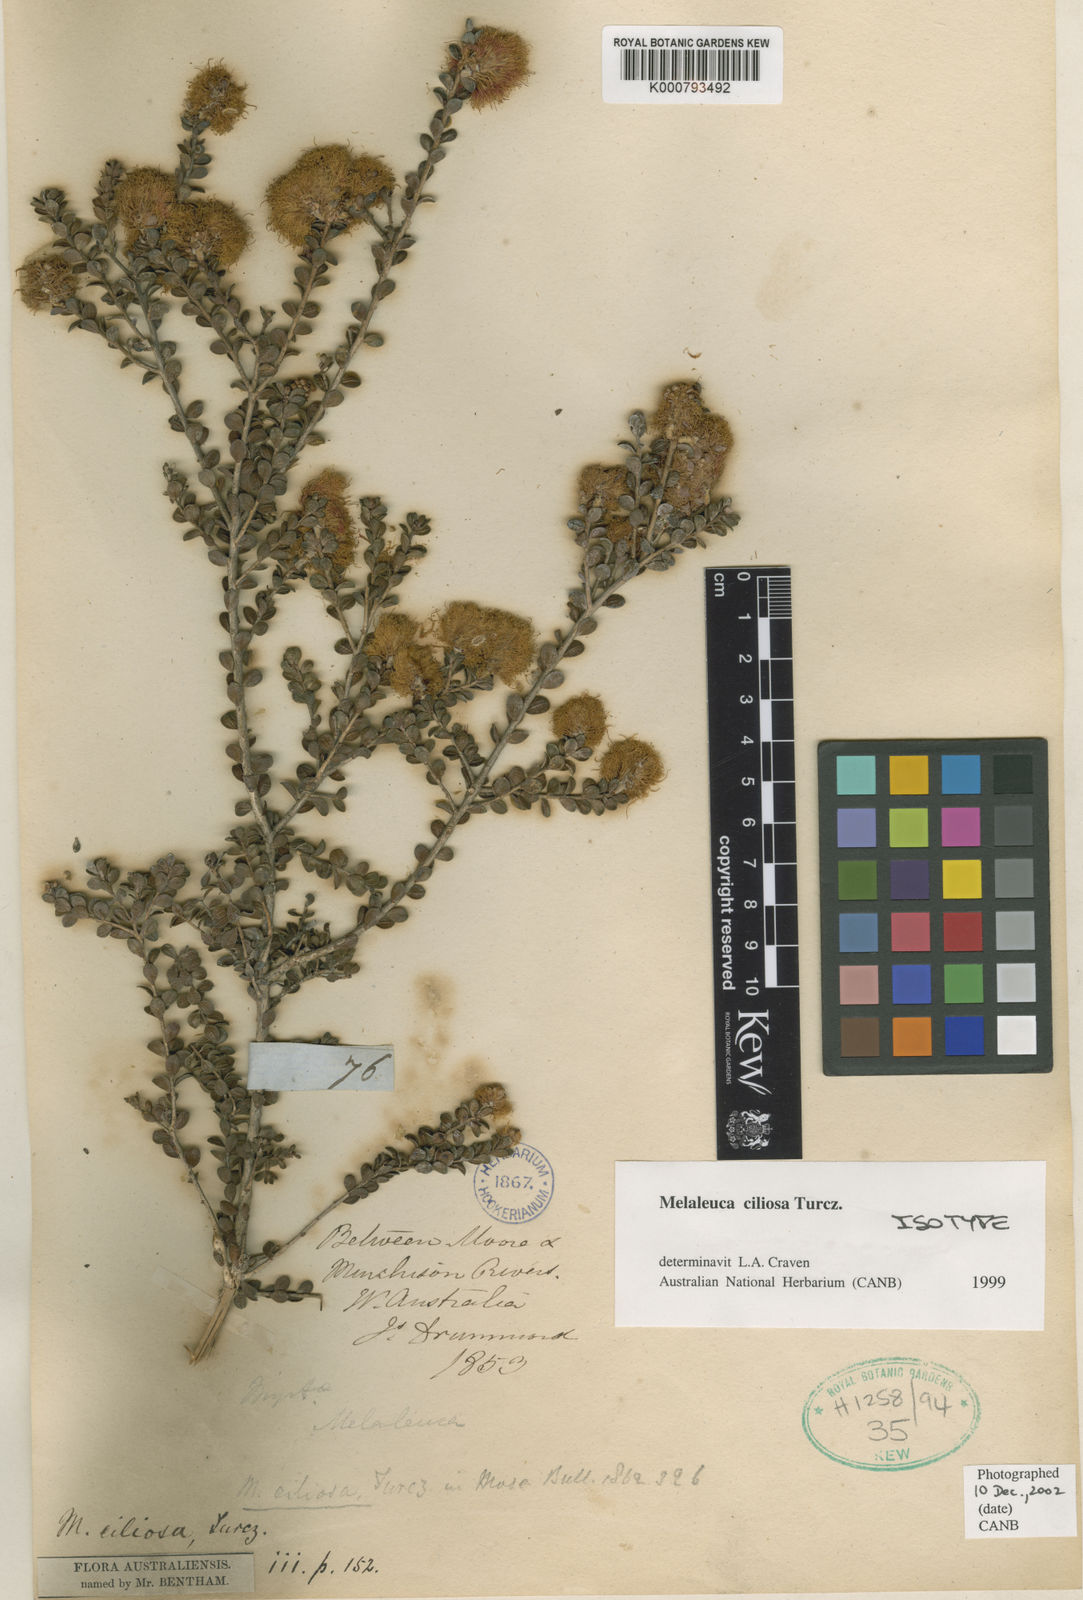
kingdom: Plantae
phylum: Tracheophyta
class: Magnoliopsida
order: Myrtales
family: Myrtaceae
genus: Melaleuca
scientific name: Melaleuca ciliosa
